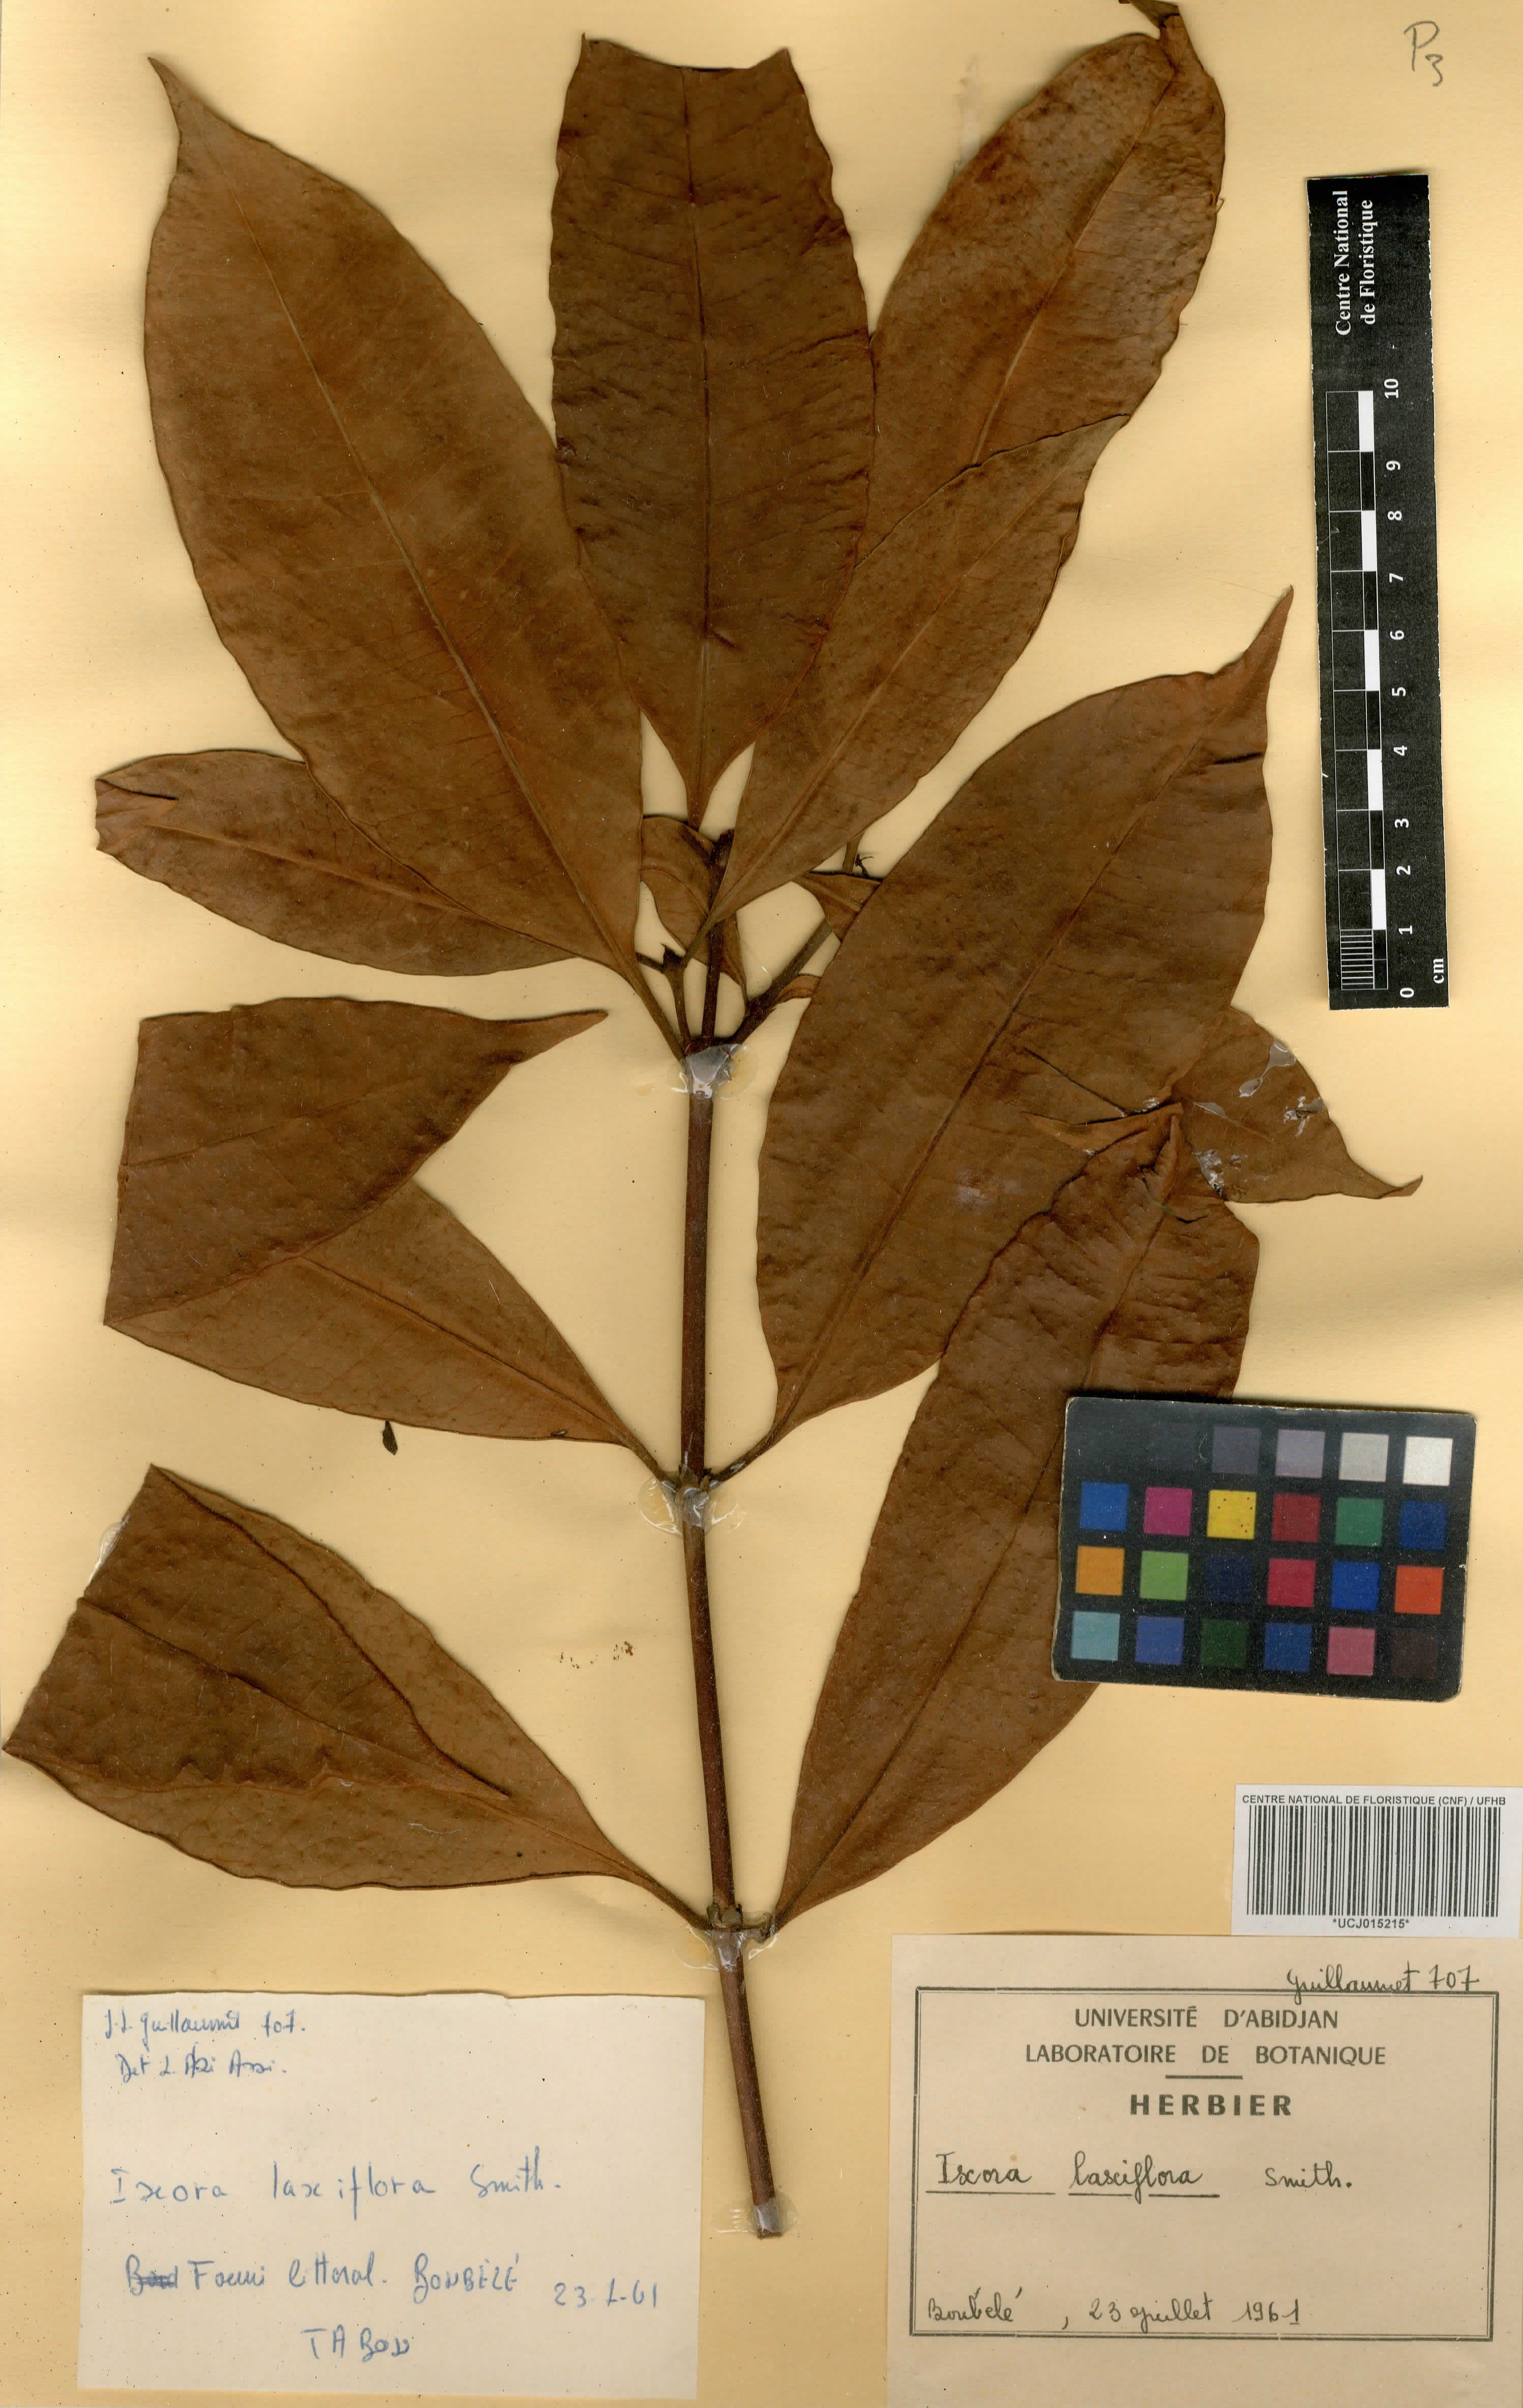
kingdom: Plantae
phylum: Tracheophyta
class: Magnoliopsida
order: Gentianales
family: Rubiaceae
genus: Ixora
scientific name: Ixora laxiflora
